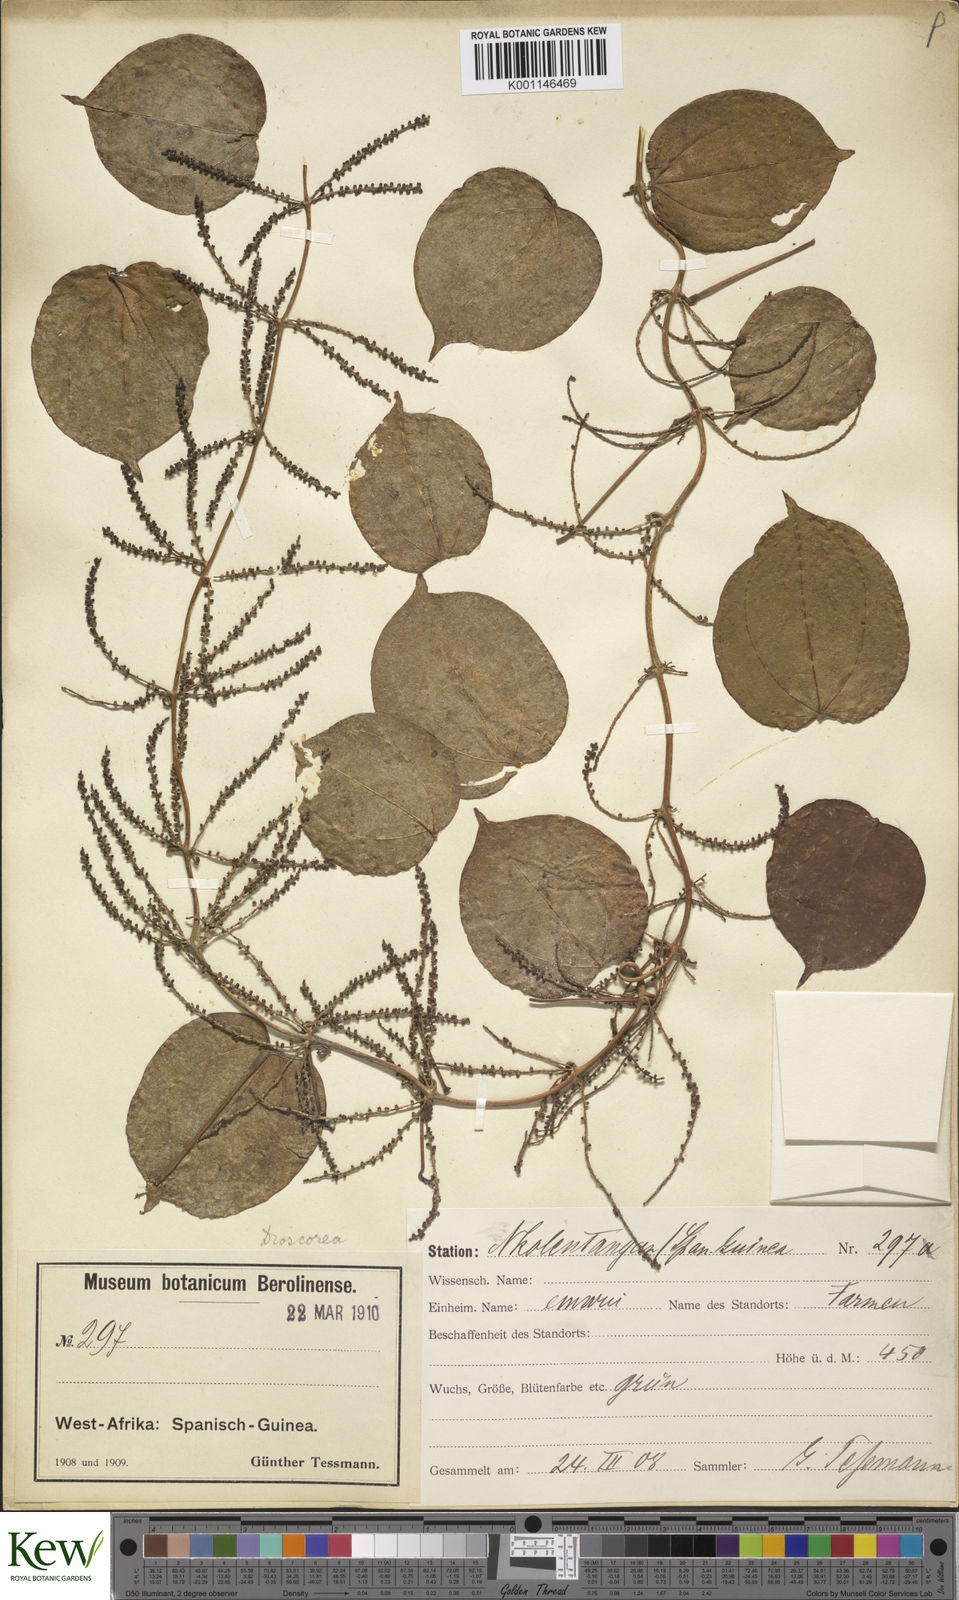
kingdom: Plantae
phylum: Tracheophyta
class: Liliopsida
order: Dioscoreales
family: Dioscoreaceae
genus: Dioscorea
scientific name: Dioscorea minutiflora
